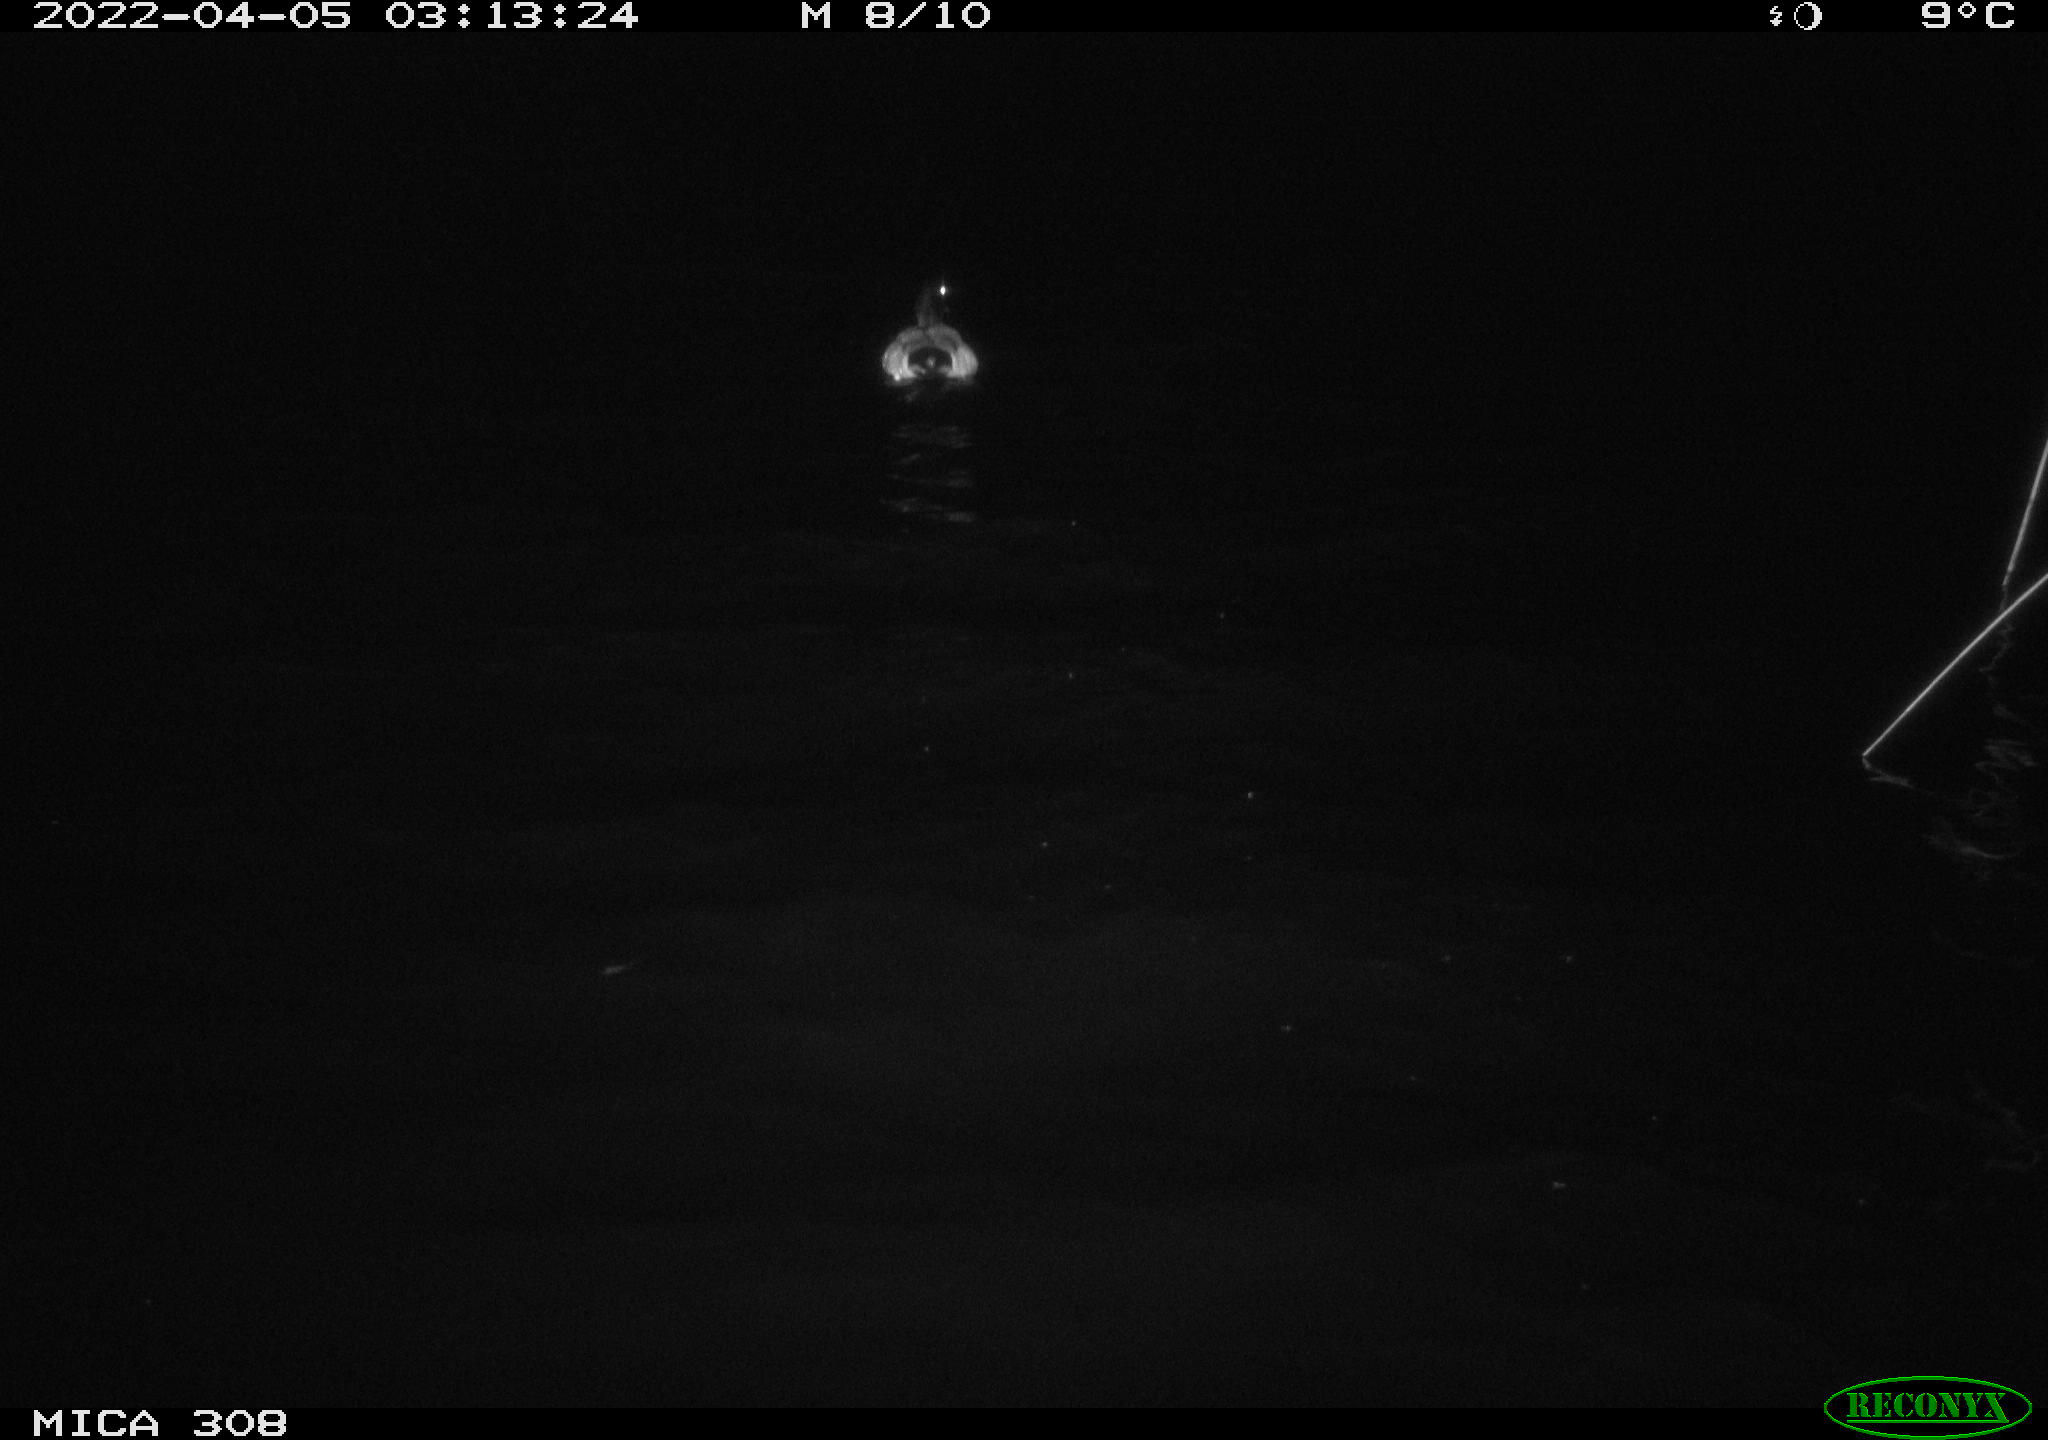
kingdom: Animalia
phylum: Chordata
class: Aves
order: Anseriformes
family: Anatidae
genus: Anas
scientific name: Anas platyrhynchos
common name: Mallard
